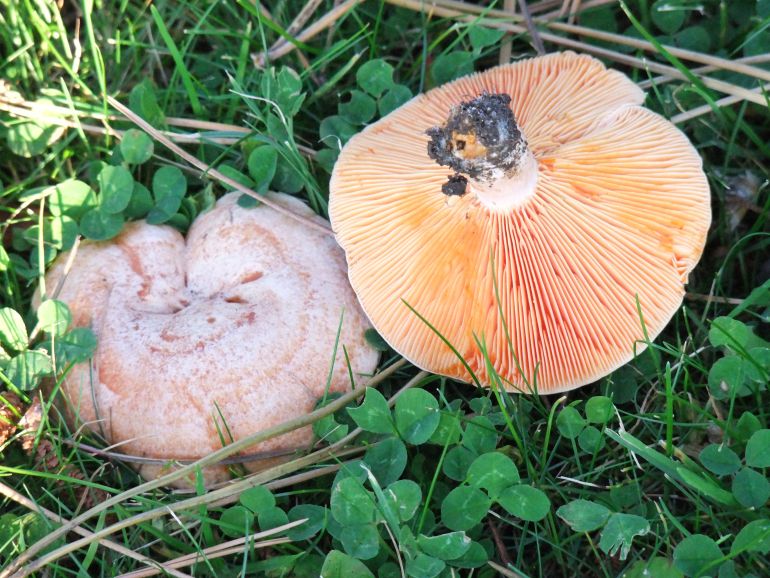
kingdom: Fungi
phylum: Basidiomycota
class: Agaricomycetes
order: Russulales
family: Russulaceae
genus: Lactarius
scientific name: Lactarius deliciosus
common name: velsmagende mælkehat
